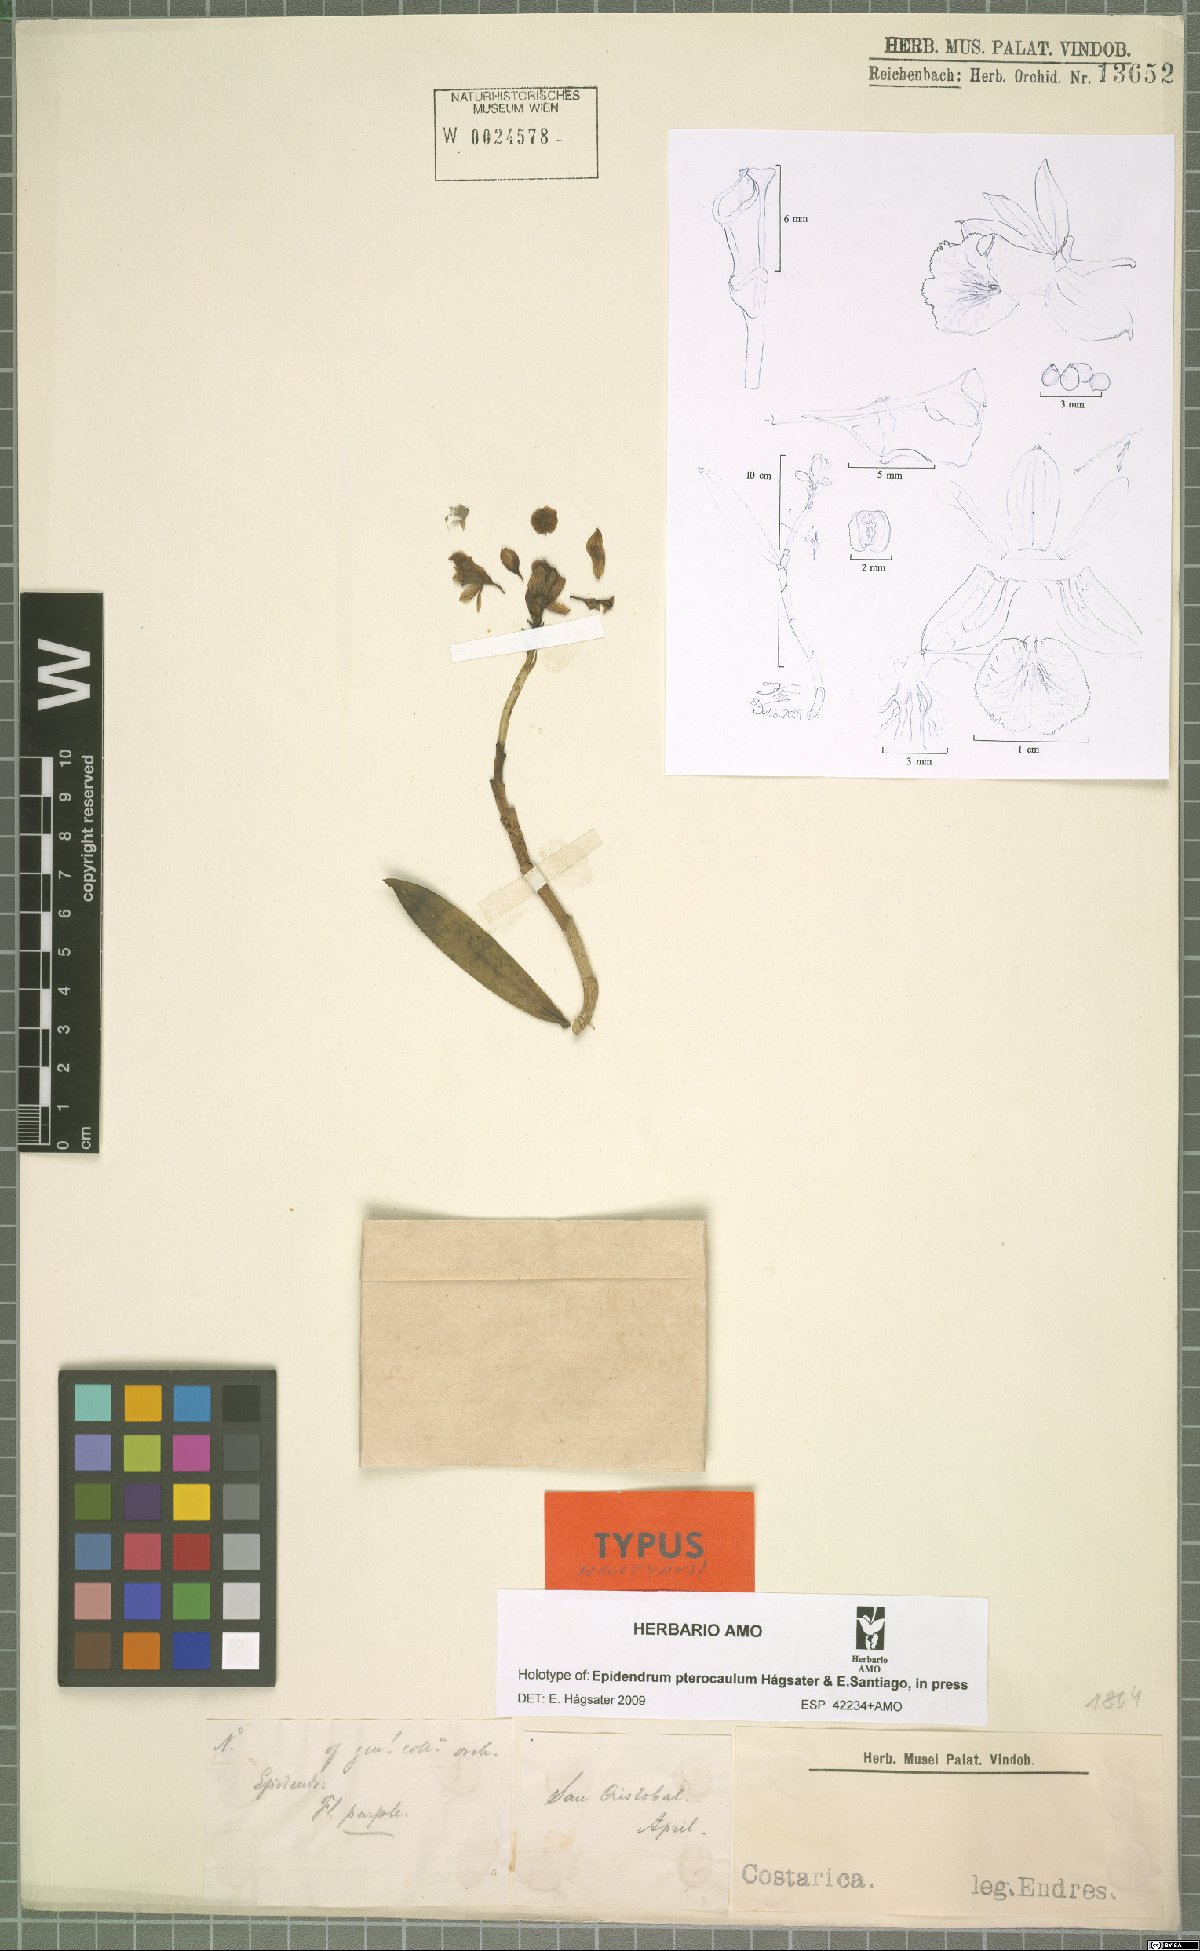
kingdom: Plantae
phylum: Tracheophyta
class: Liliopsida
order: Asparagales
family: Orchidaceae
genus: Epidendrum
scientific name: Epidendrum pterocaulum
